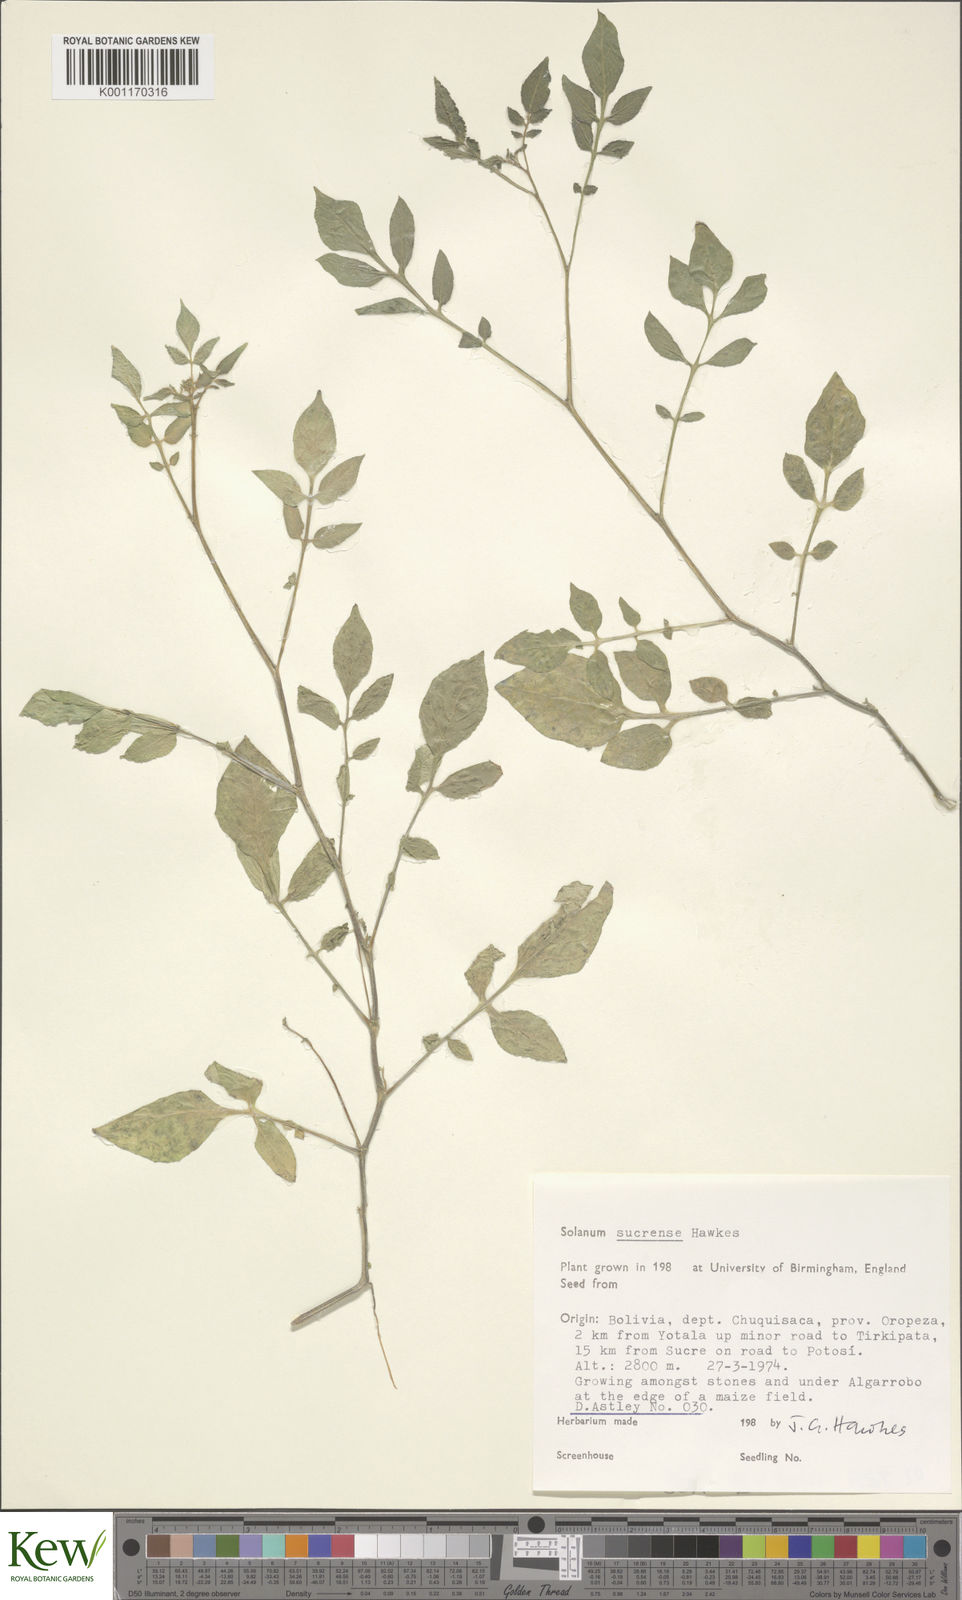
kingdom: Plantae
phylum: Tracheophyta
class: Magnoliopsida
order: Solanales
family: Solanaceae
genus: Solanum
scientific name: Solanum brevicaule
